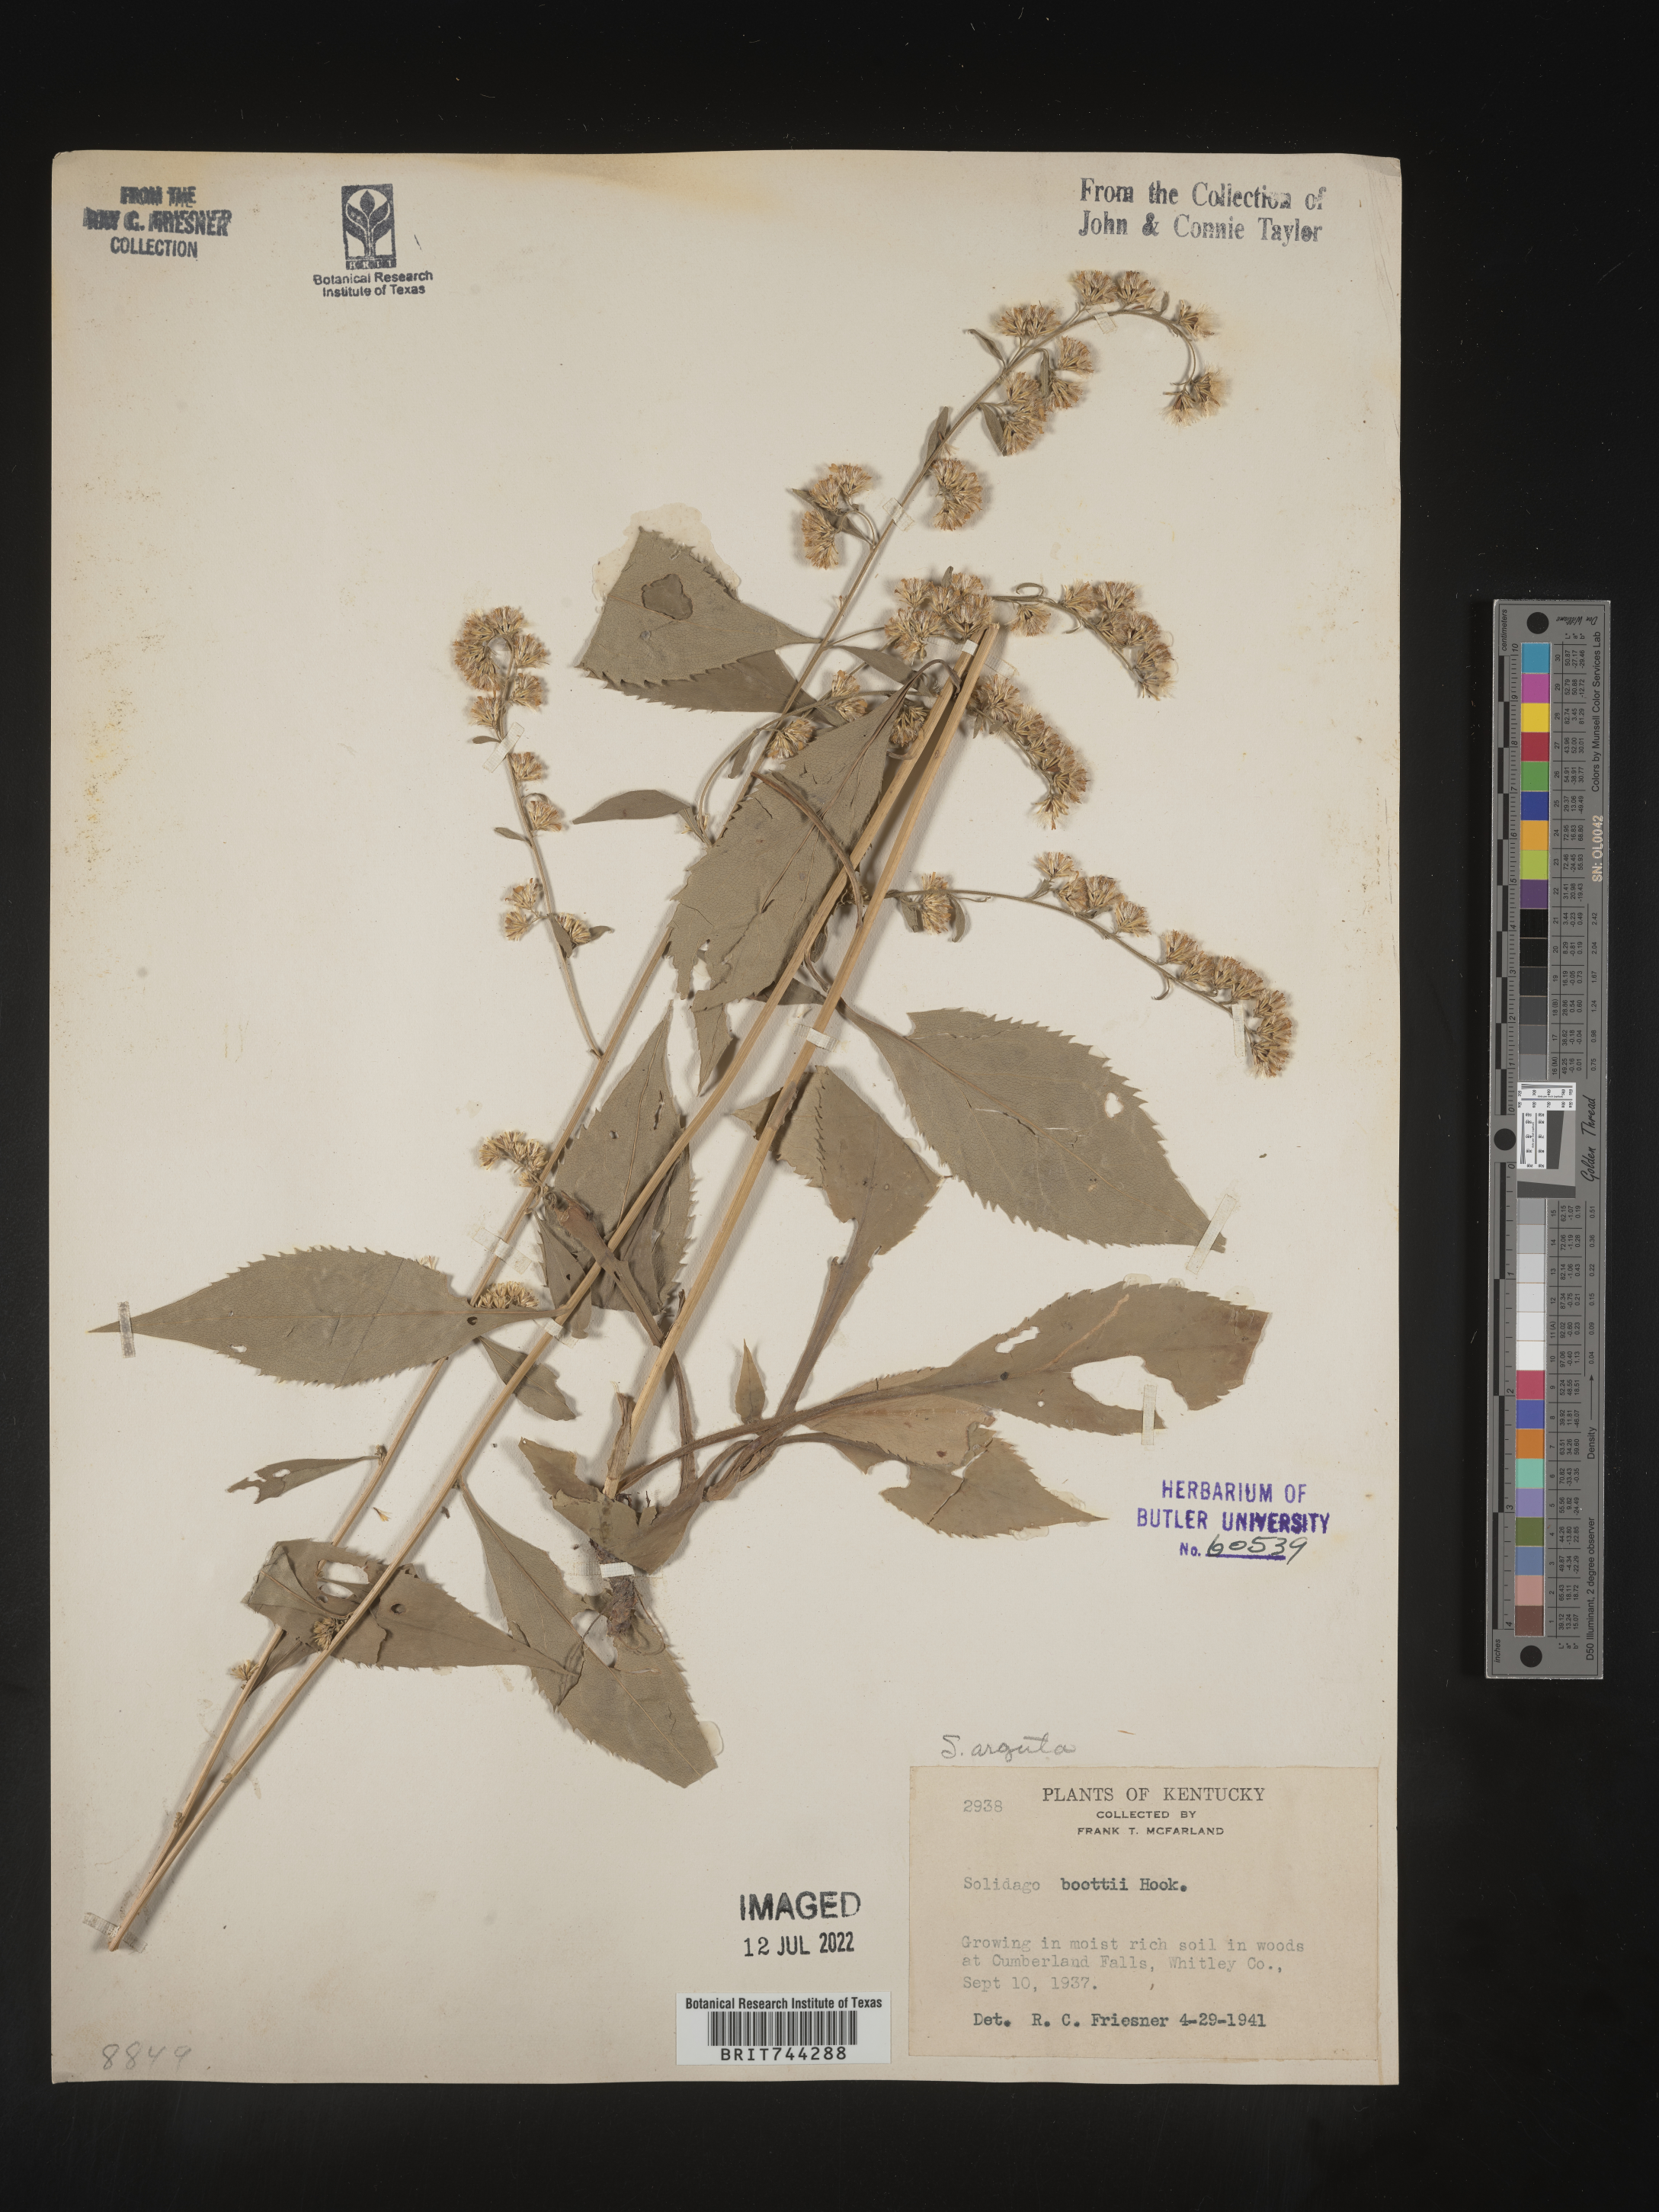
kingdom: Plantae
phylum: Tracheophyta
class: Magnoliopsida
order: Asterales
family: Asteraceae
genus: Solidago
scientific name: Solidago boottii
